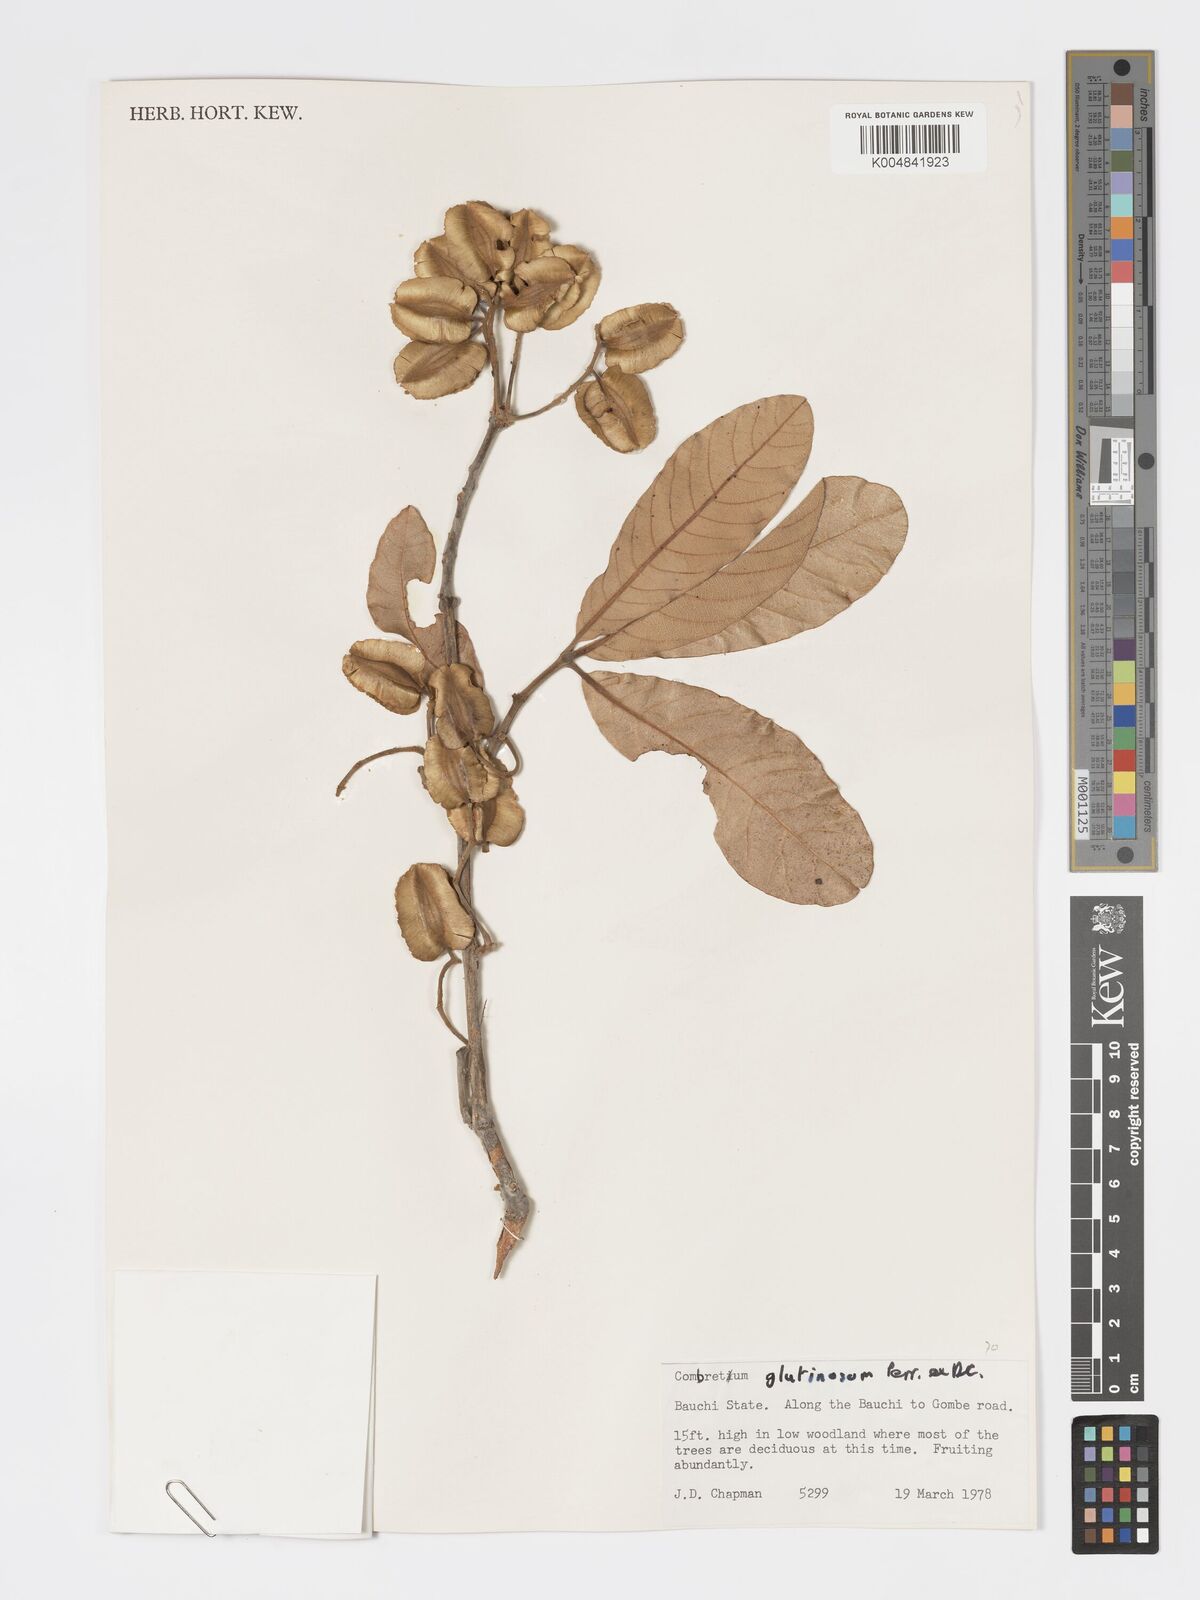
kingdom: Plantae
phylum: Tracheophyta
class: Magnoliopsida
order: Myrtales
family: Combretaceae
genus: Combretum
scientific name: Combretum
